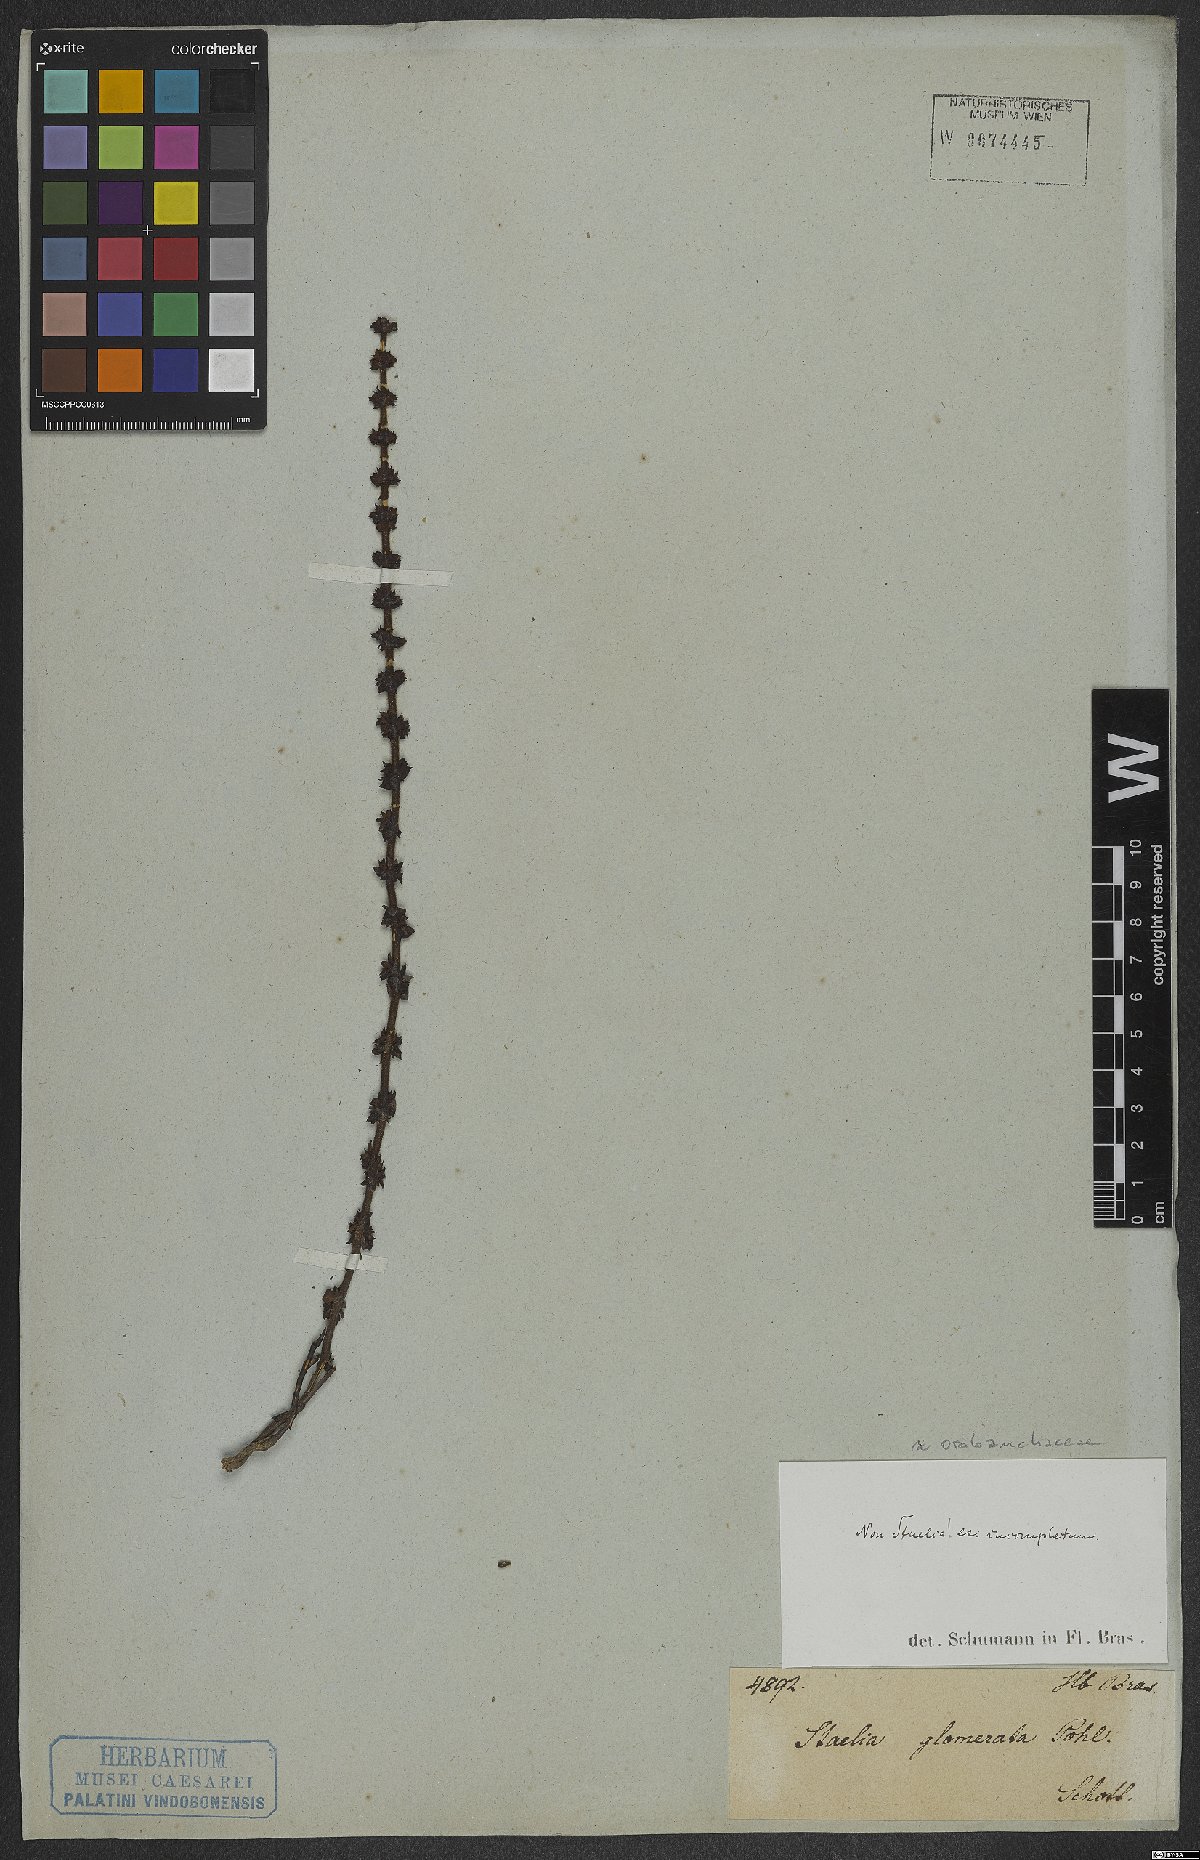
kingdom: Plantae
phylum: Tracheophyta
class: Magnoliopsida
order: Lamiales
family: Scrophulariaceae
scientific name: Scrophulariaceae
